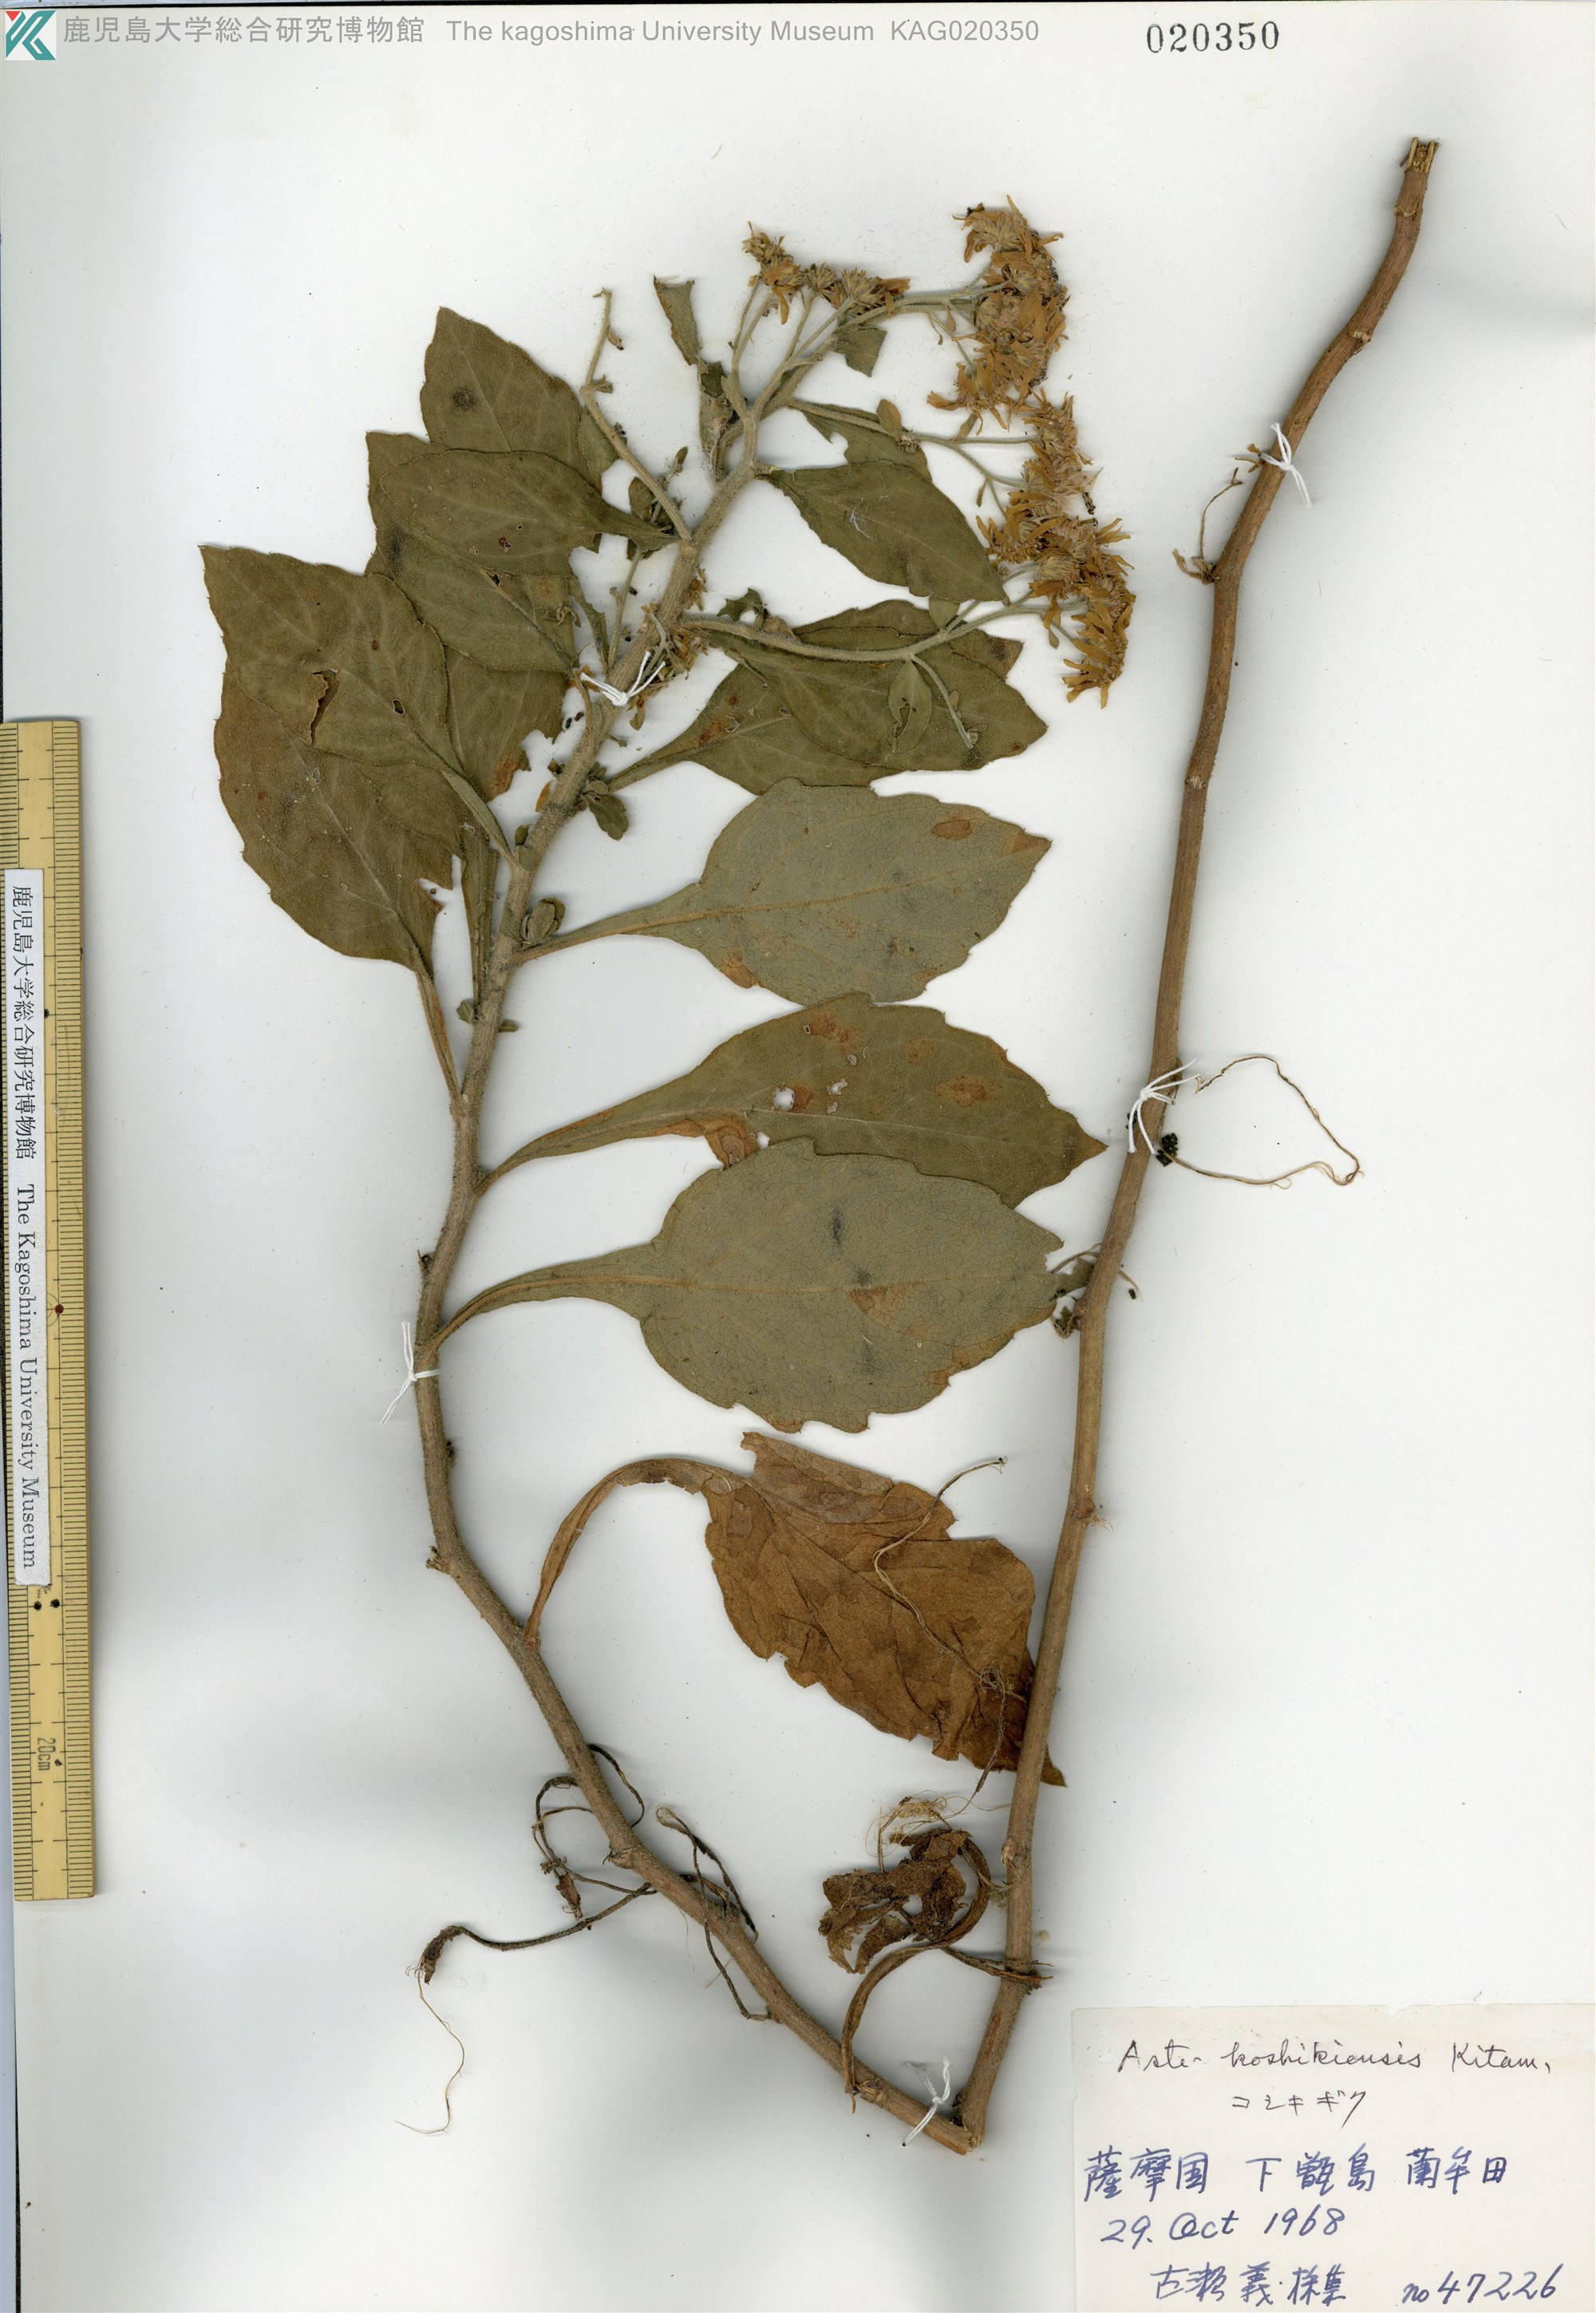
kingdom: Plantae
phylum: Tracheophyta
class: Magnoliopsida
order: Asterales
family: Asteraceae
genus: Aster
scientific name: Aster koshikiensis
